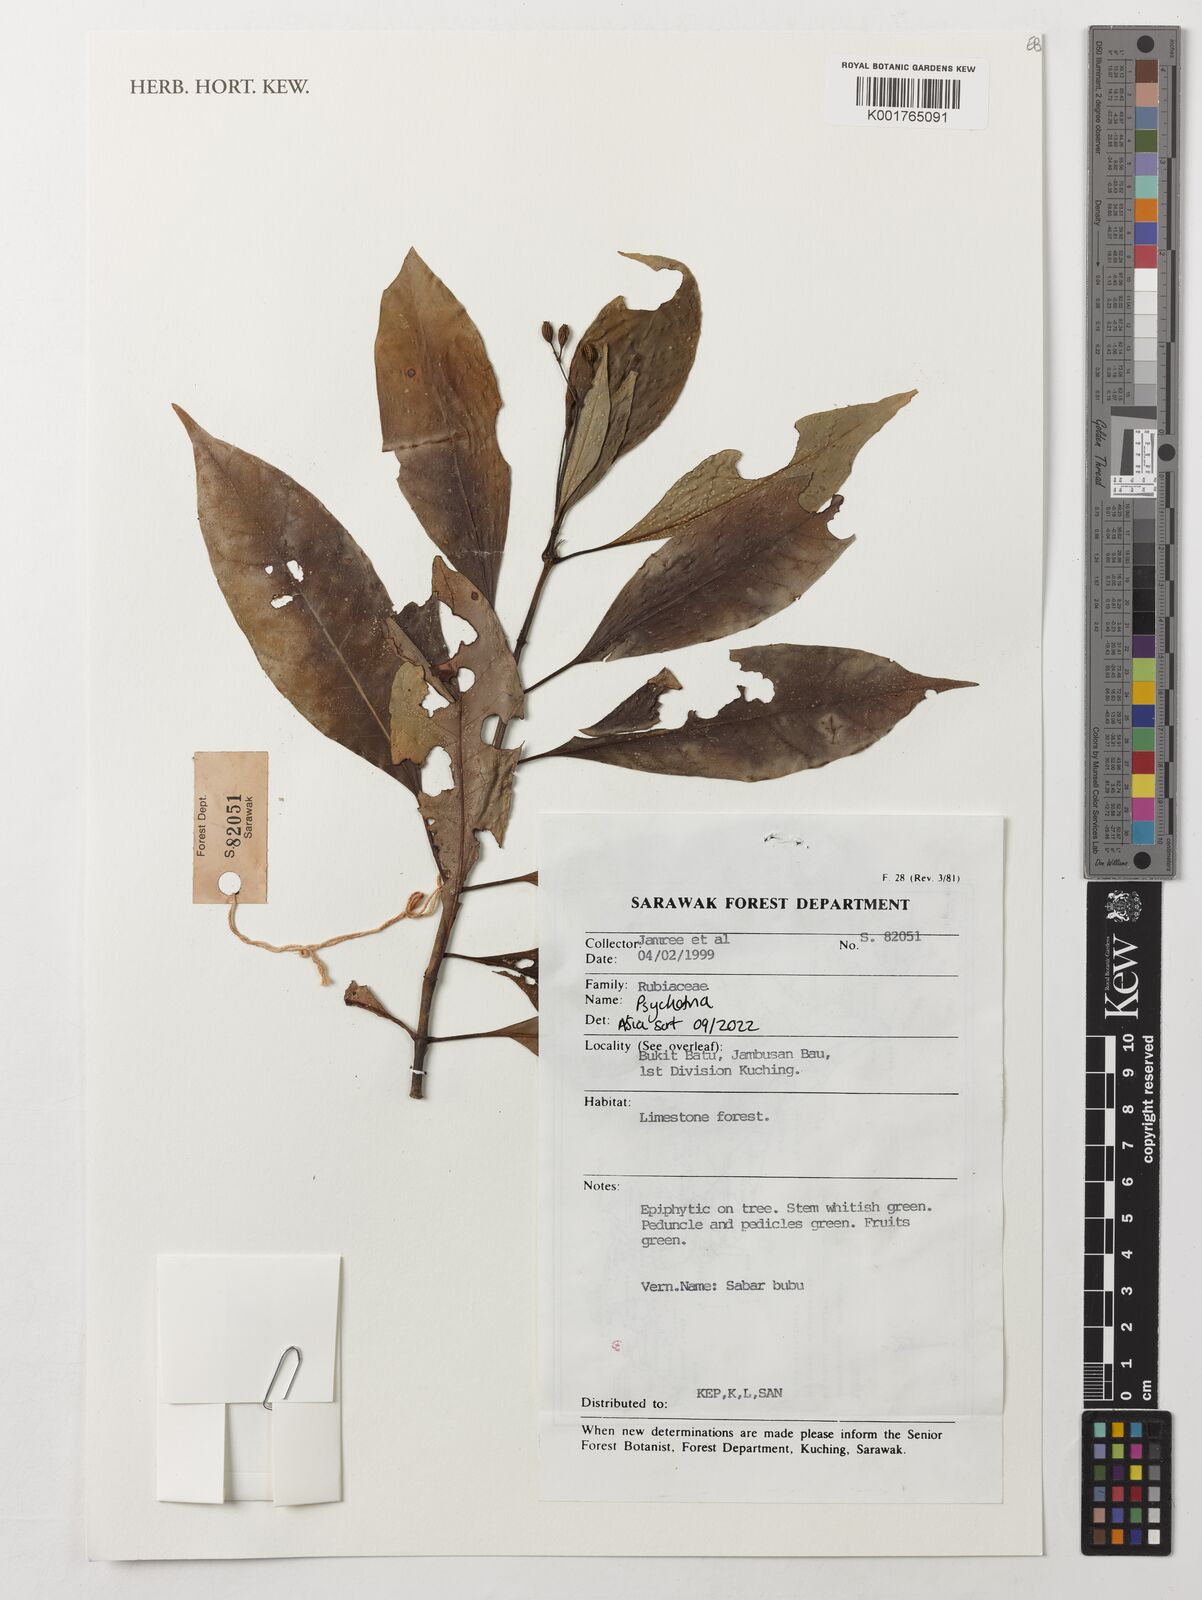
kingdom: Plantae
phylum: Tracheophyta
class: Magnoliopsida
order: Gentianales
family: Rubiaceae
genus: Psychotria
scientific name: Psychotria
